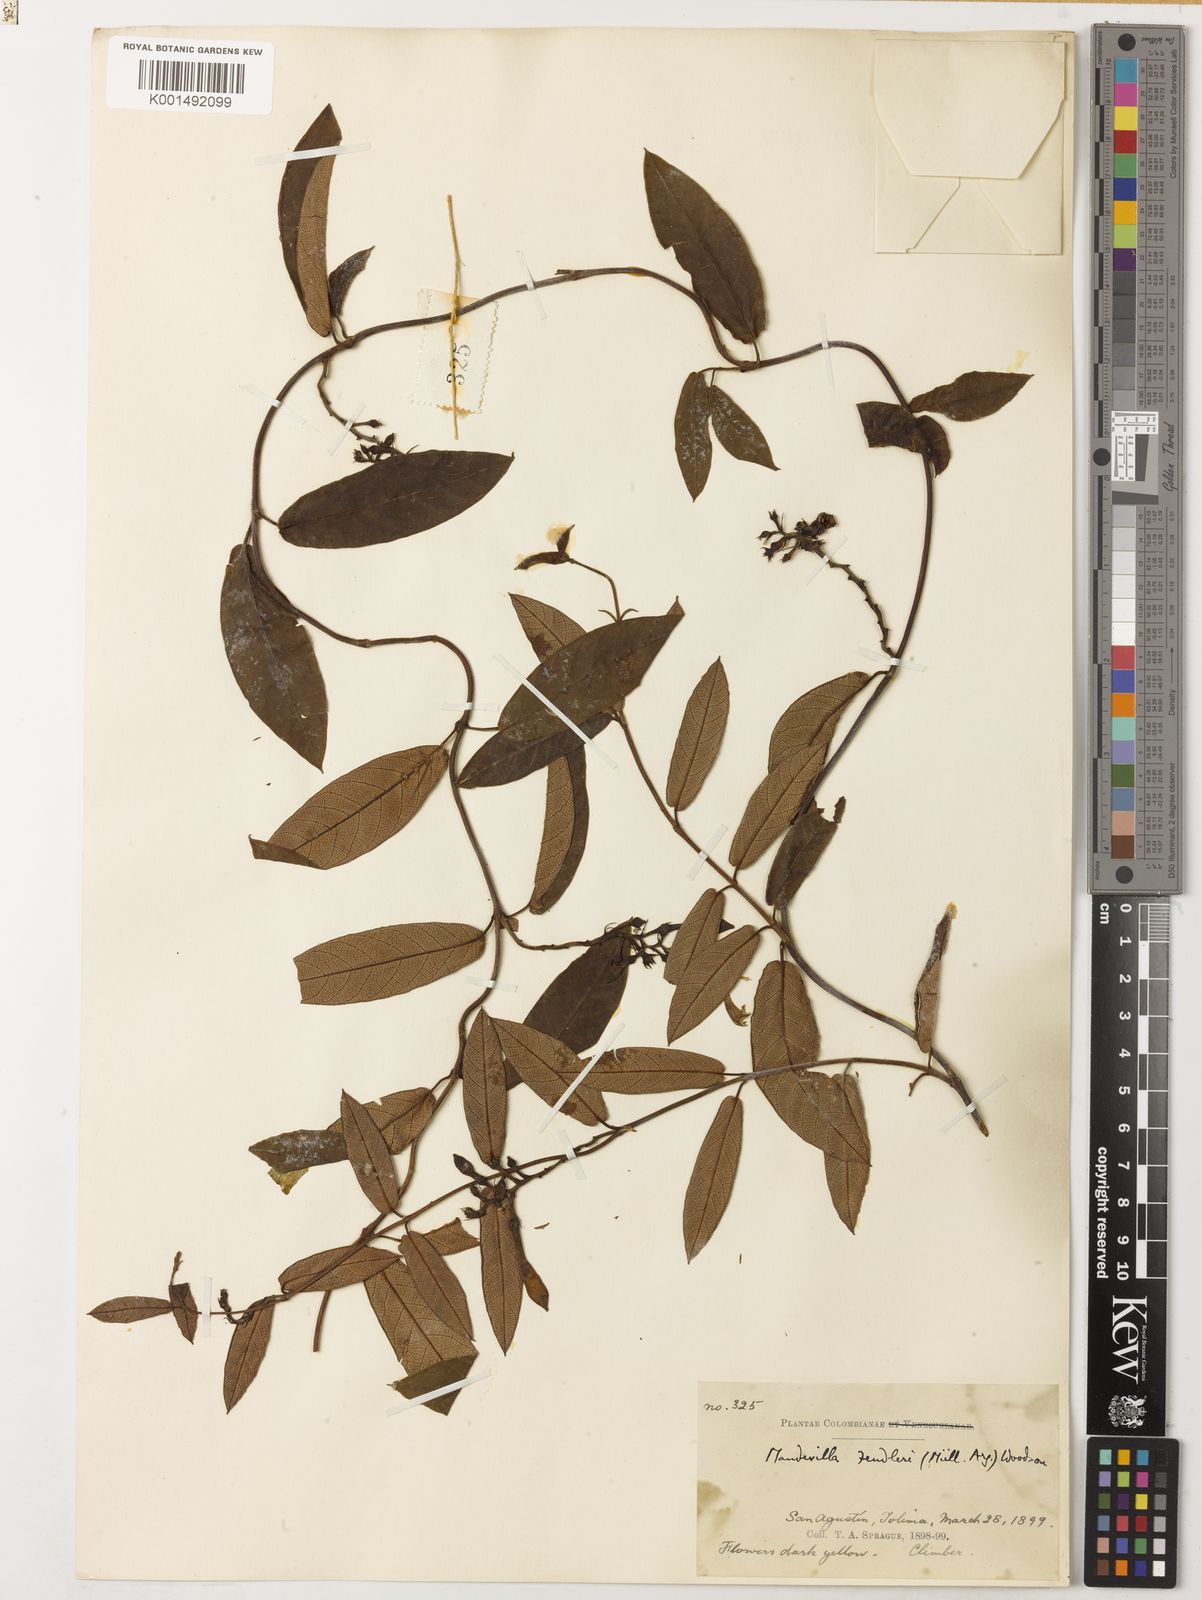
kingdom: Plantae
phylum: Tracheophyta
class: Magnoliopsida
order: Gentianales
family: Apocynaceae
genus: Mandevilla
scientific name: Mandevilla speciosa
